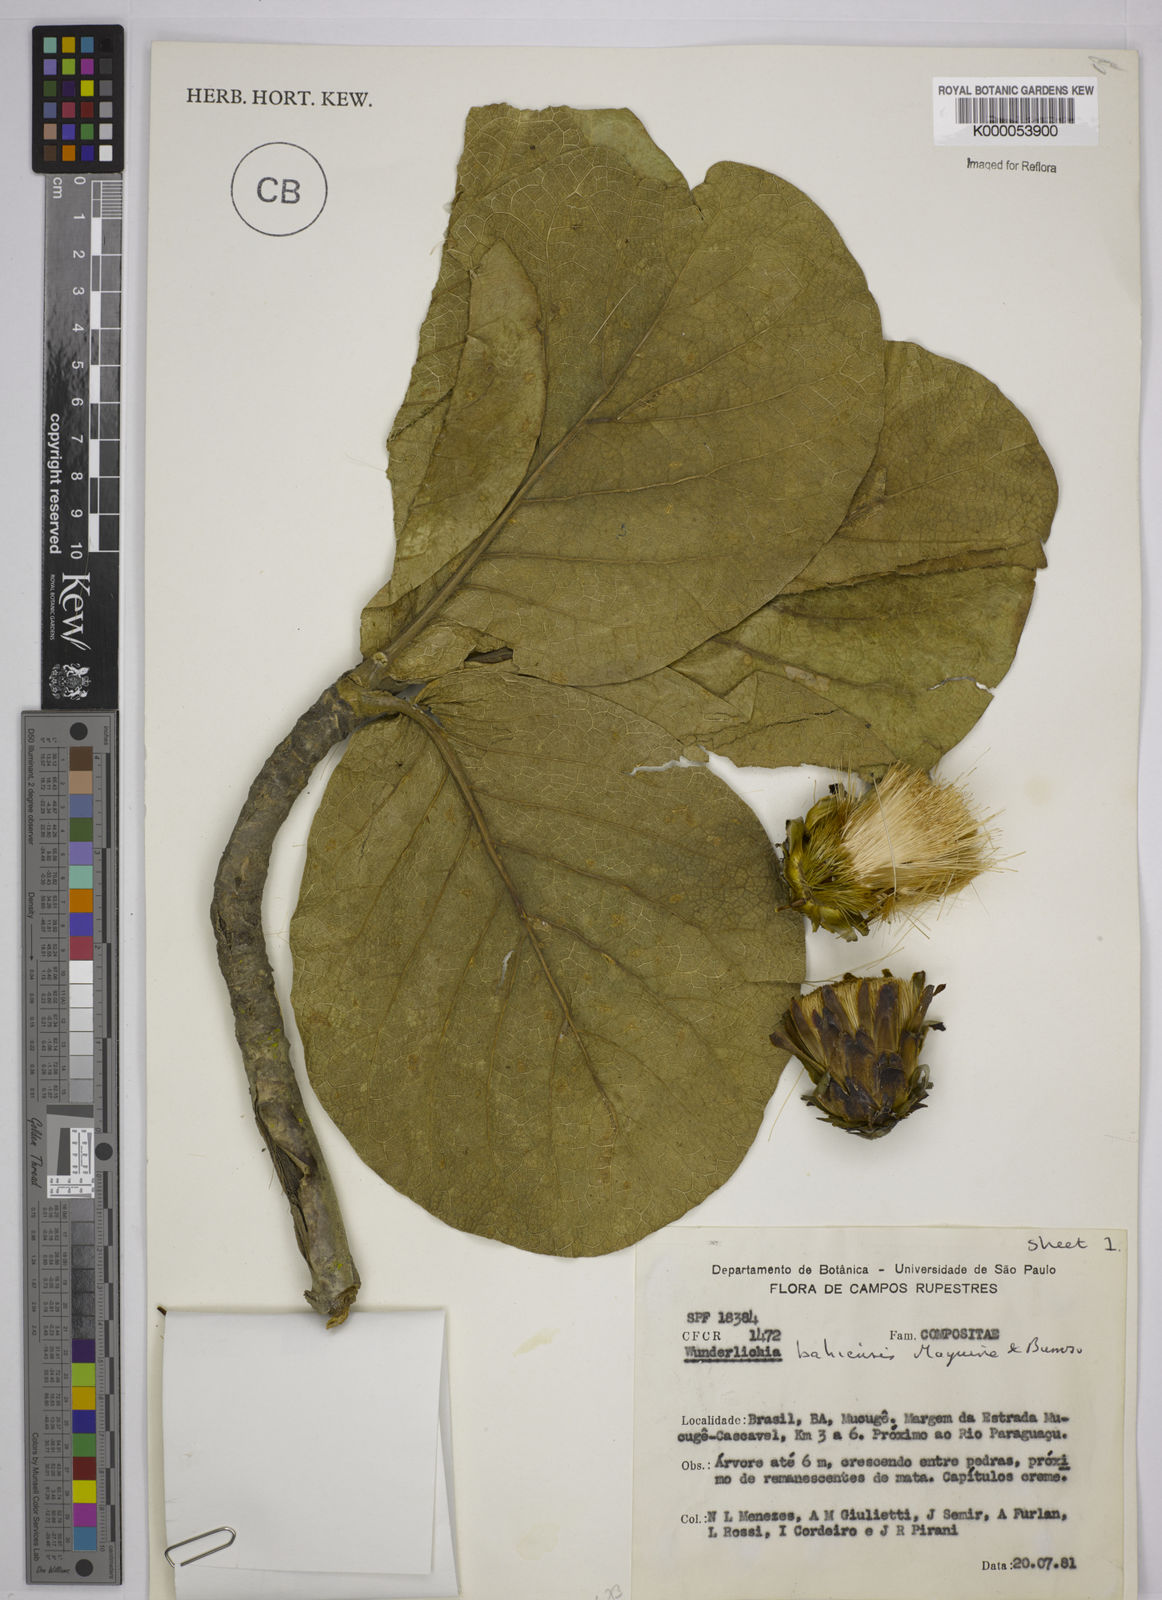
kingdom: Plantae
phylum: Tracheophyta
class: Magnoliopsida
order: Asterales
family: Asteraceae
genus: Wunderlichia
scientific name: Wunderlichia
